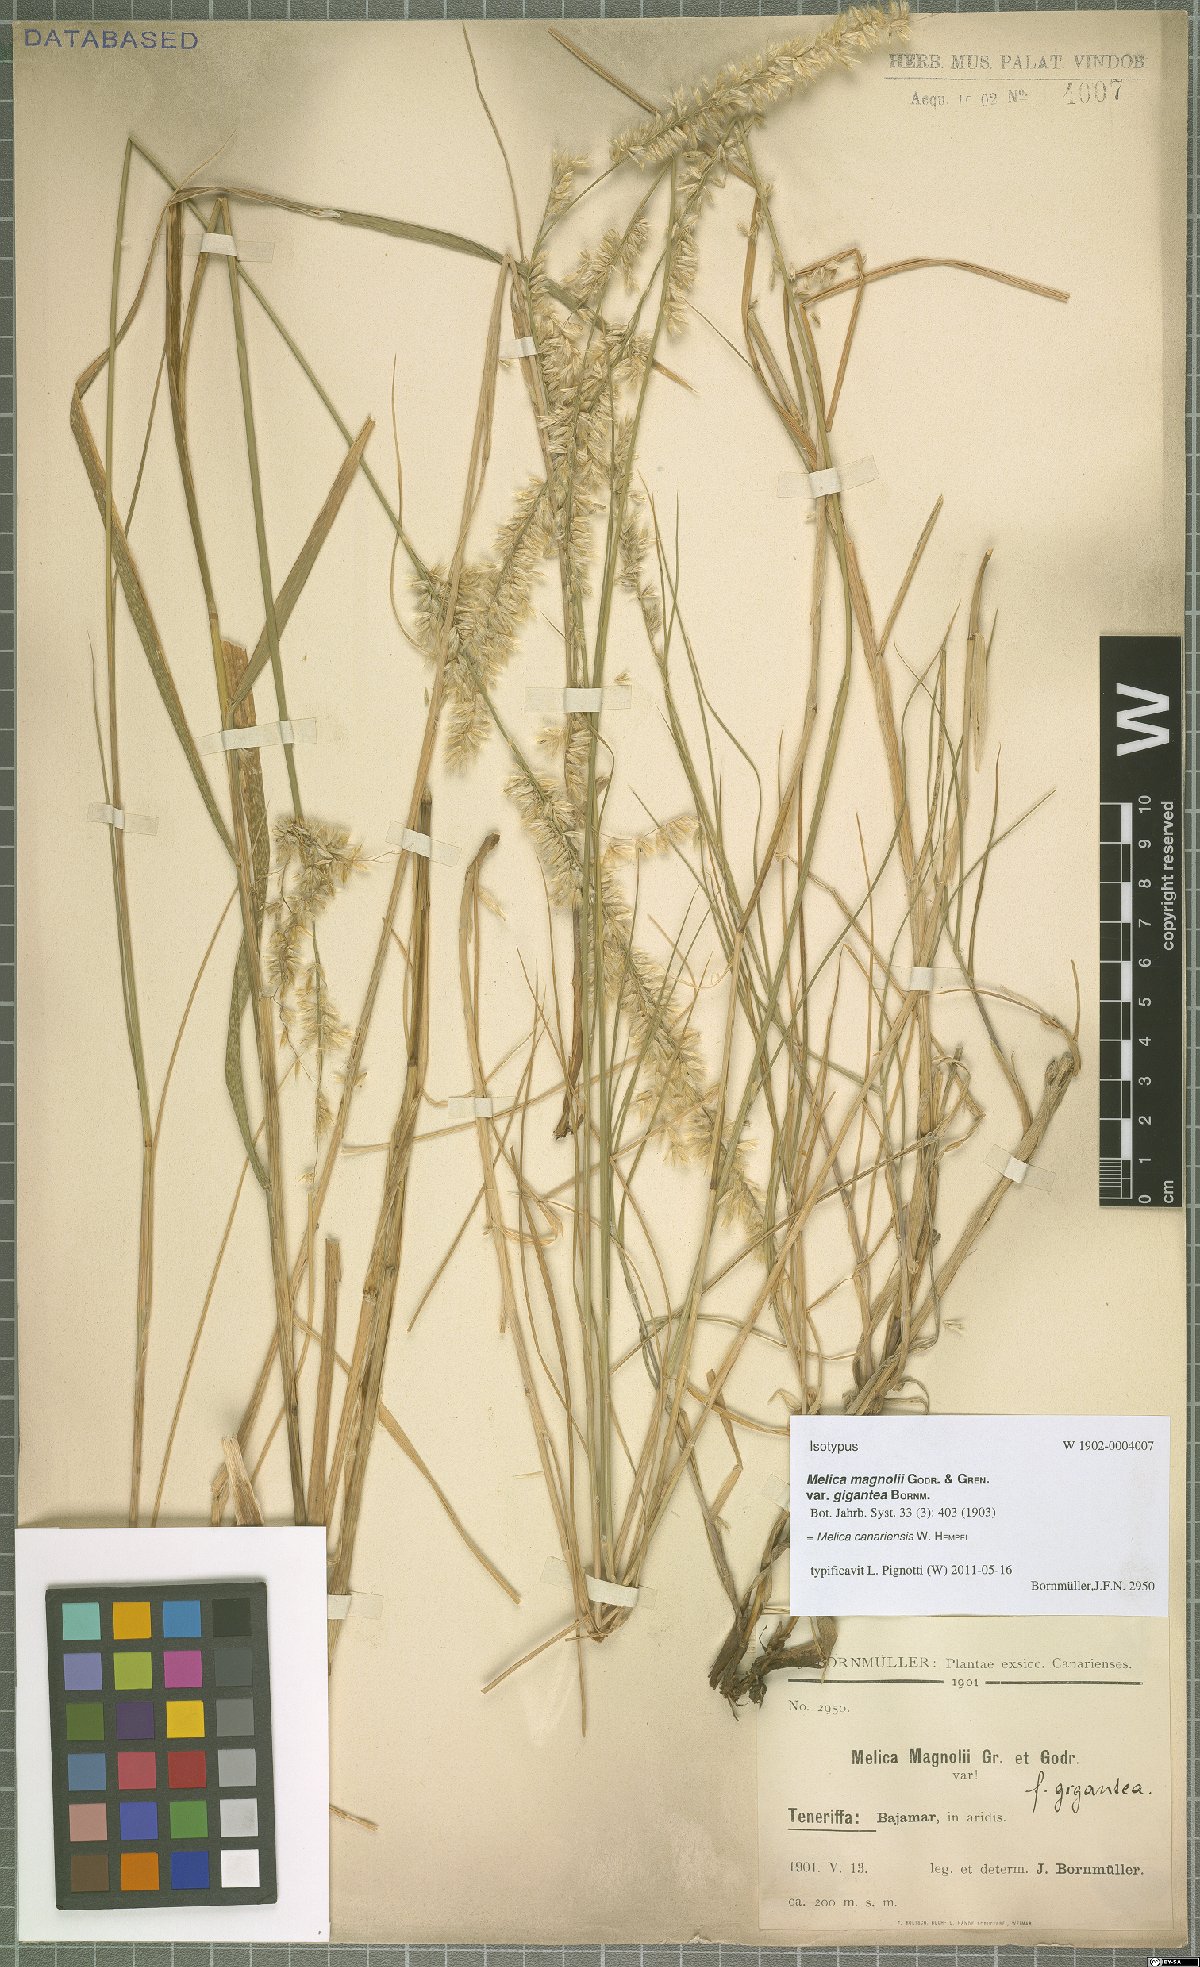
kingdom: Plantae
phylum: Tracheophyta
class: Liliopsida
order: Poales
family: Poaceae
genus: Melica
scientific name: Melica canariensis
